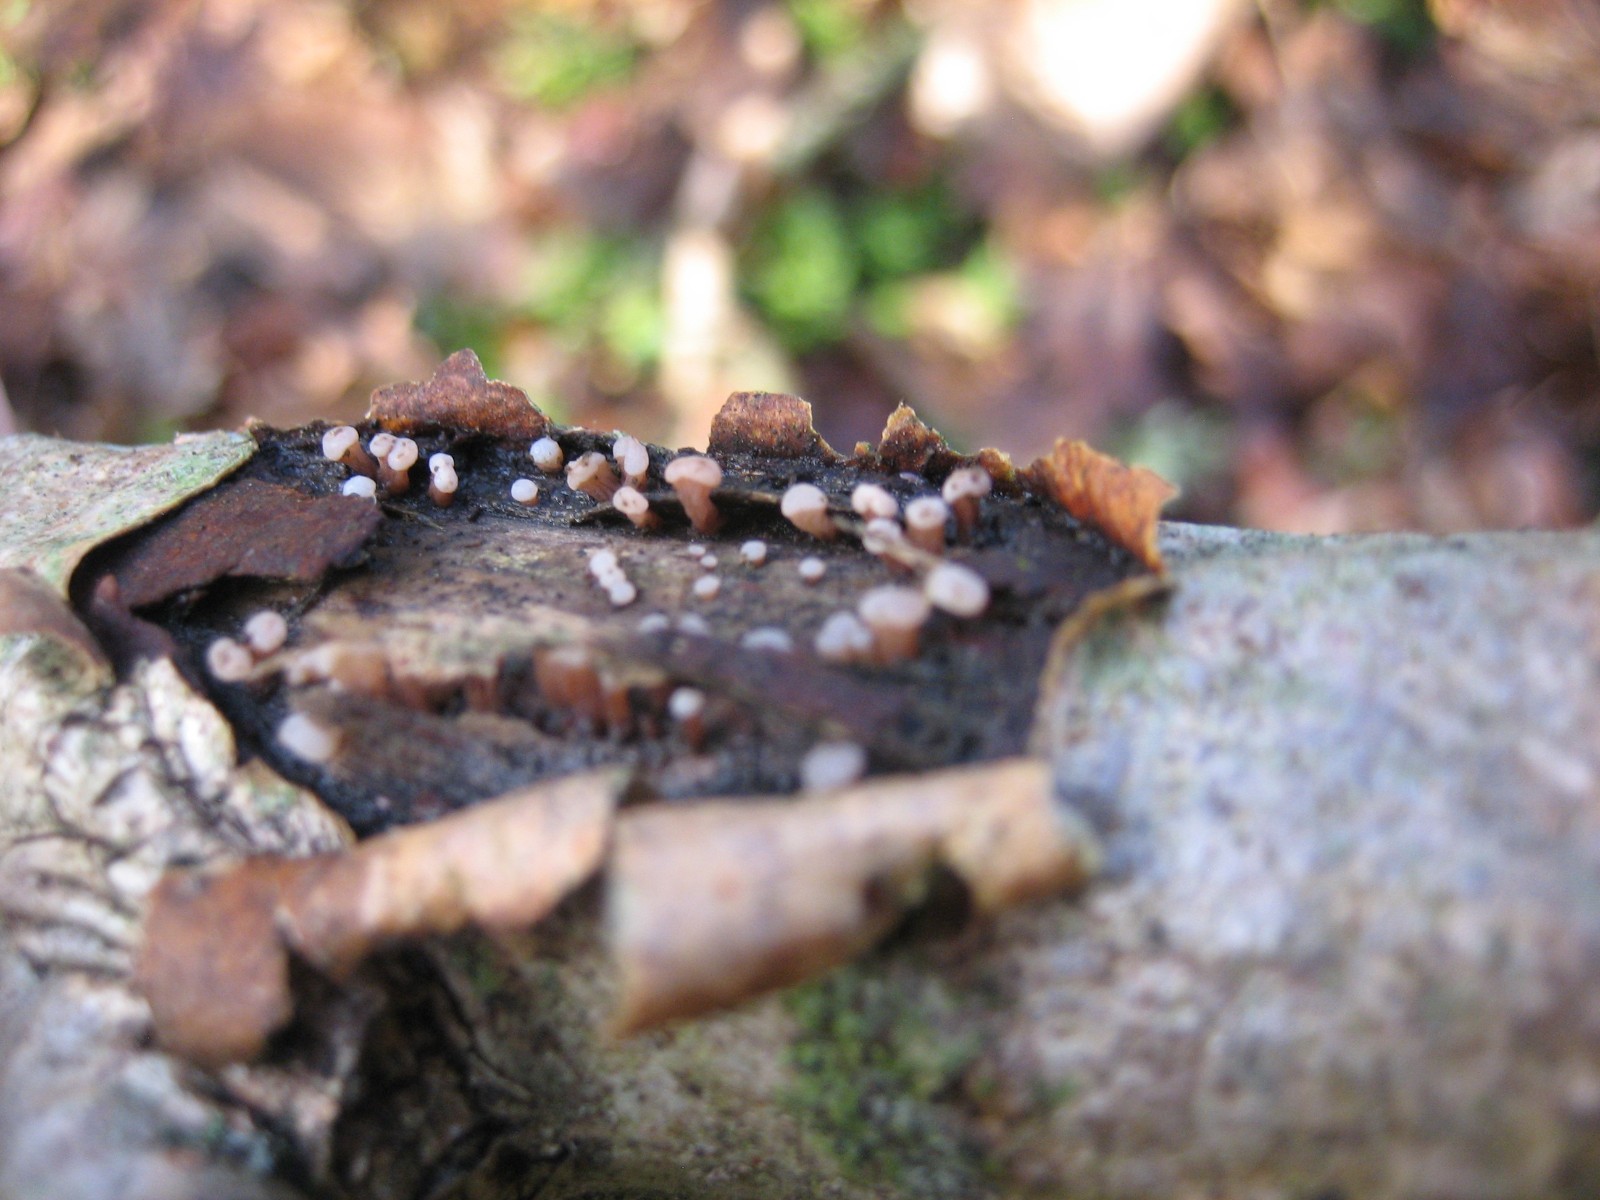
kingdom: Fungi
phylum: Ascomycota
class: Leotiomycetes
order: Helotiales
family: Gelatinodiscaceae
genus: Ascocoryne
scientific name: Ascocoryne albida
